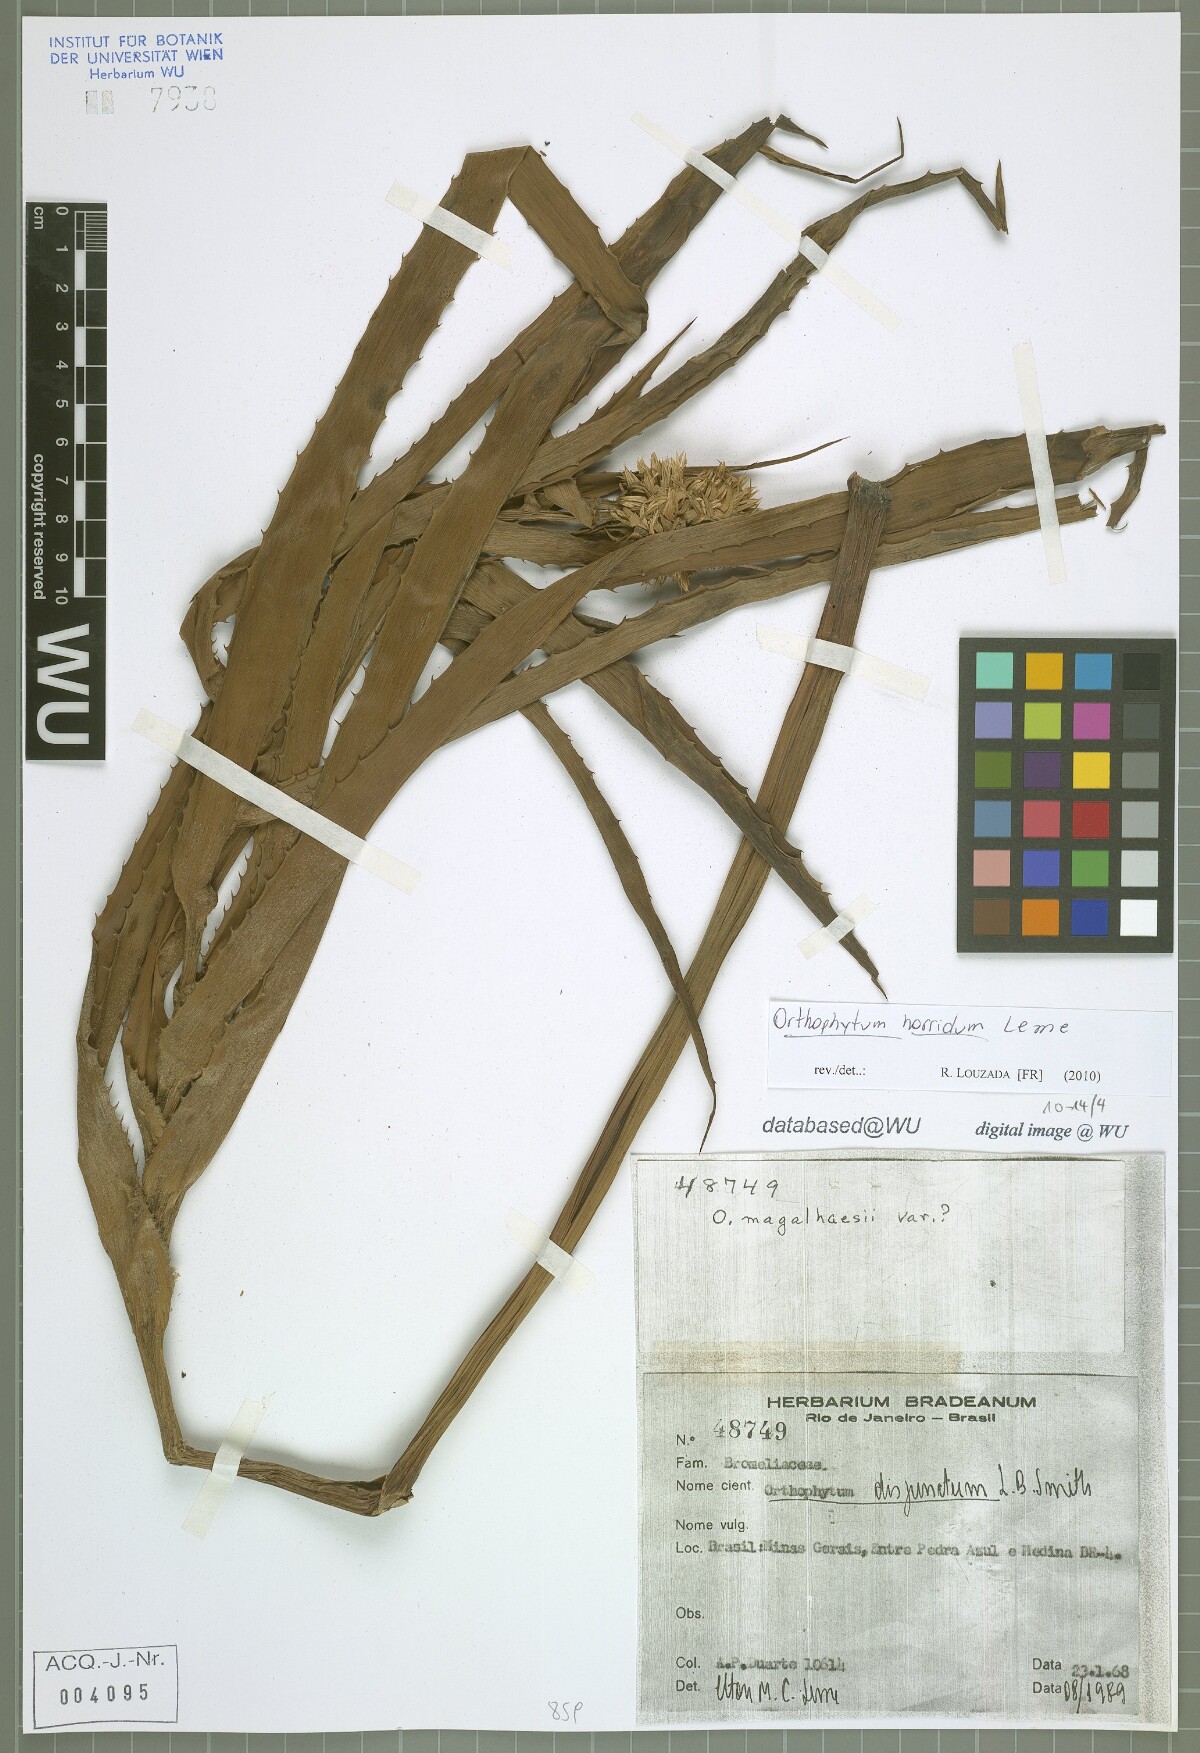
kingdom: Plantae
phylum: Tracheophyta
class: Liliopsida
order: Poales
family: Bromeliaceae
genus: Orthophytum
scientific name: Orthophytum horridum
